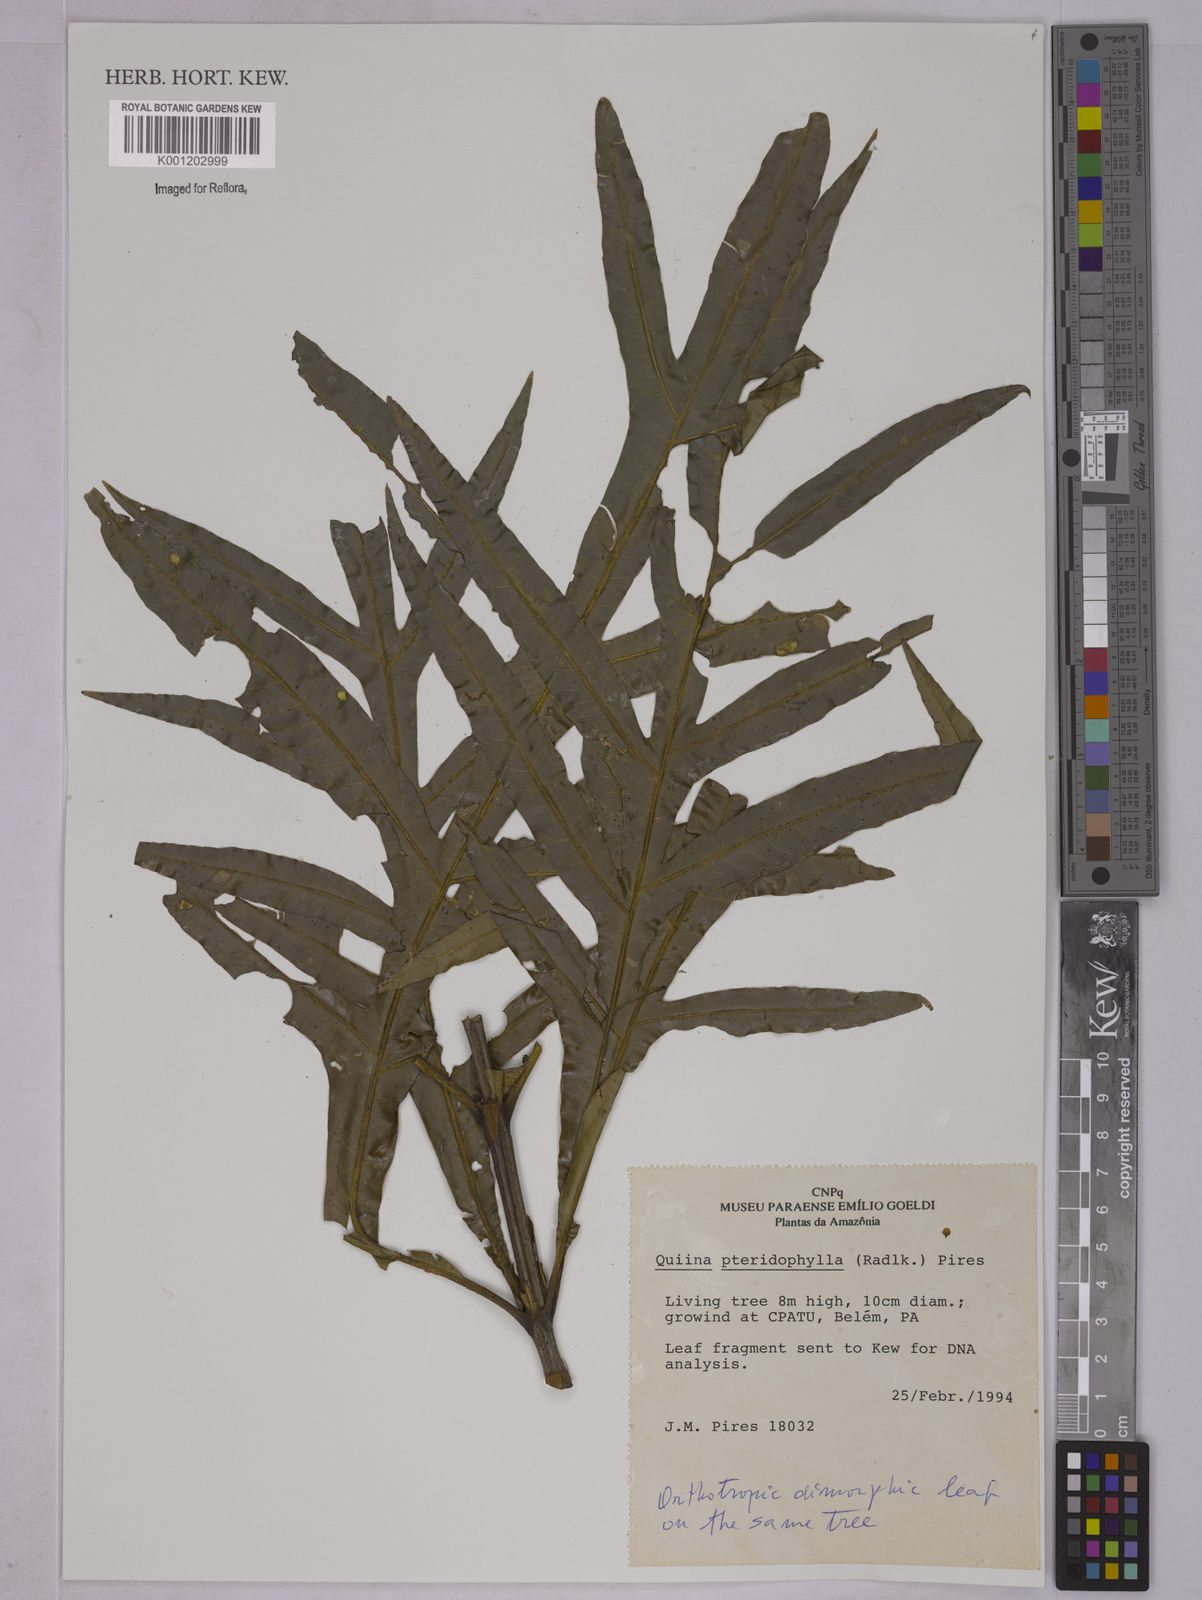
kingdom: Plantae
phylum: Tracheophyta
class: Magnoliopsida
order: Malpighiales
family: Quiinaceae
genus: Quiina
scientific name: Quiina pteridophylla
